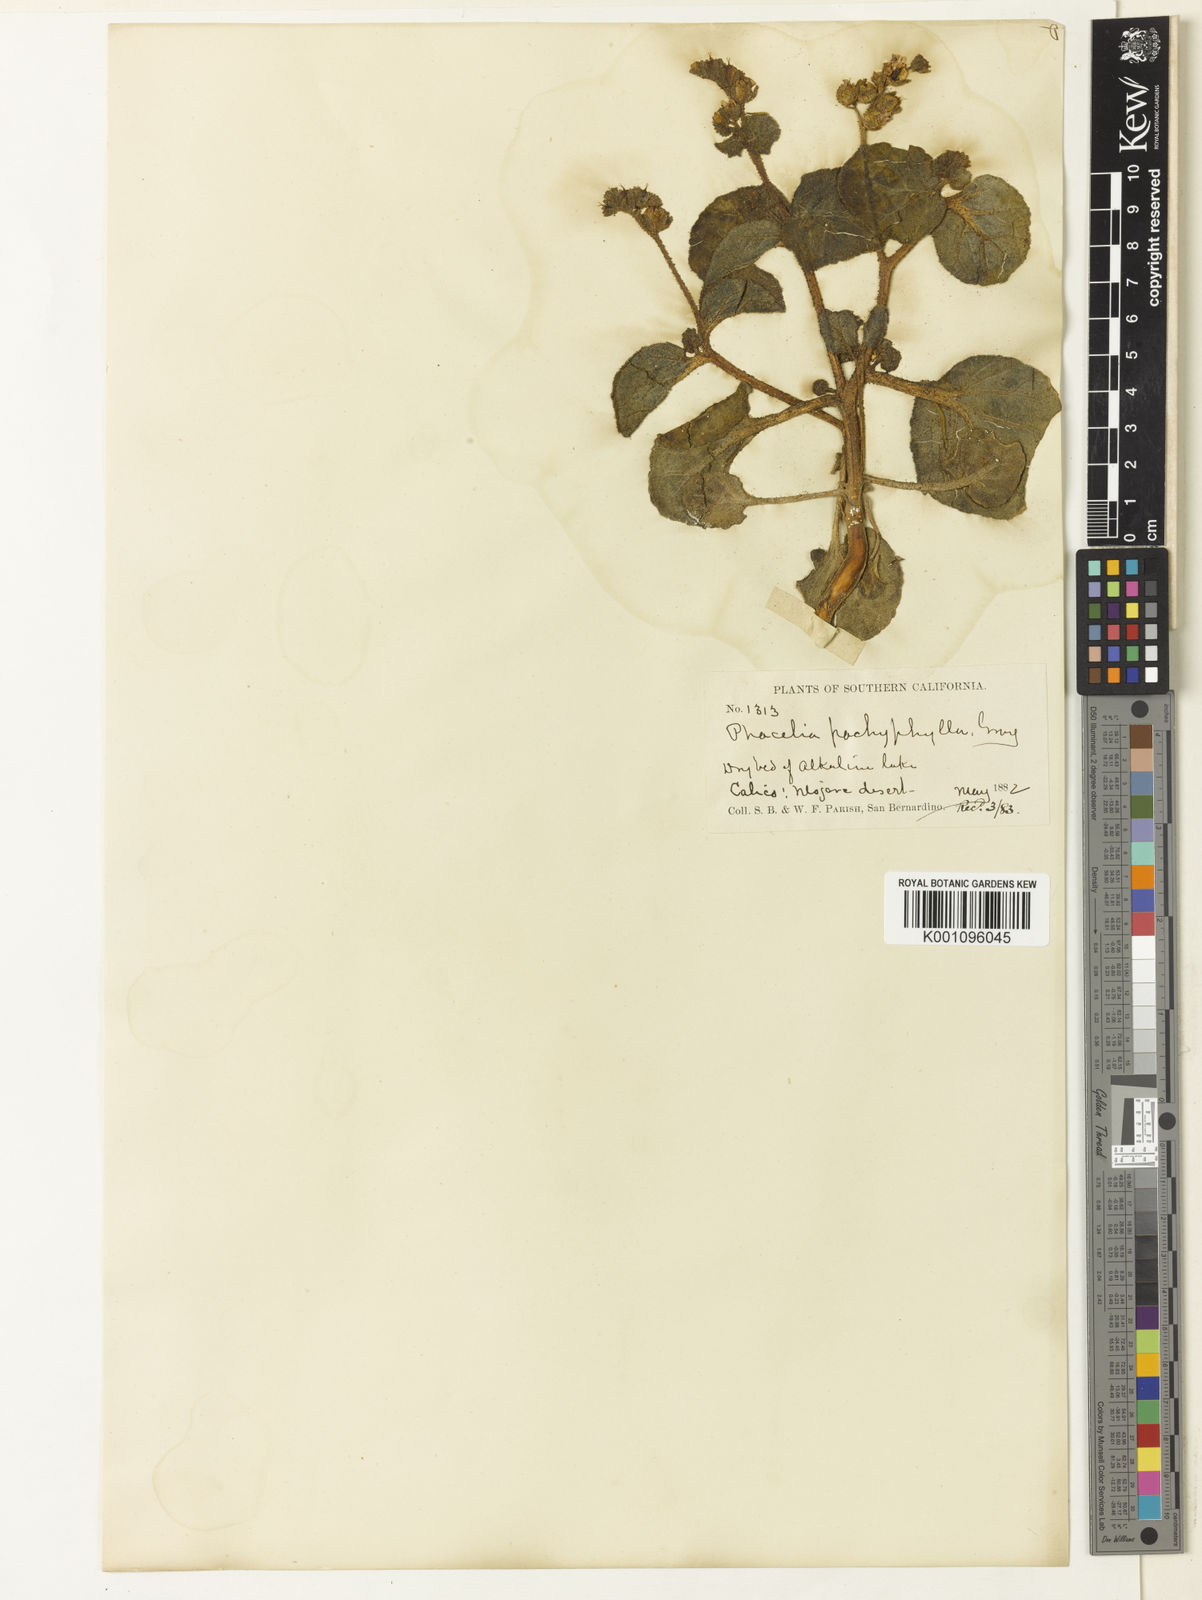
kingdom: Plantae
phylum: Tracheophyta
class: Magnoliopsida
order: Boraginales
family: Hydrophyllaceae
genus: Phacelia
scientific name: Phacelia pachyphylla
